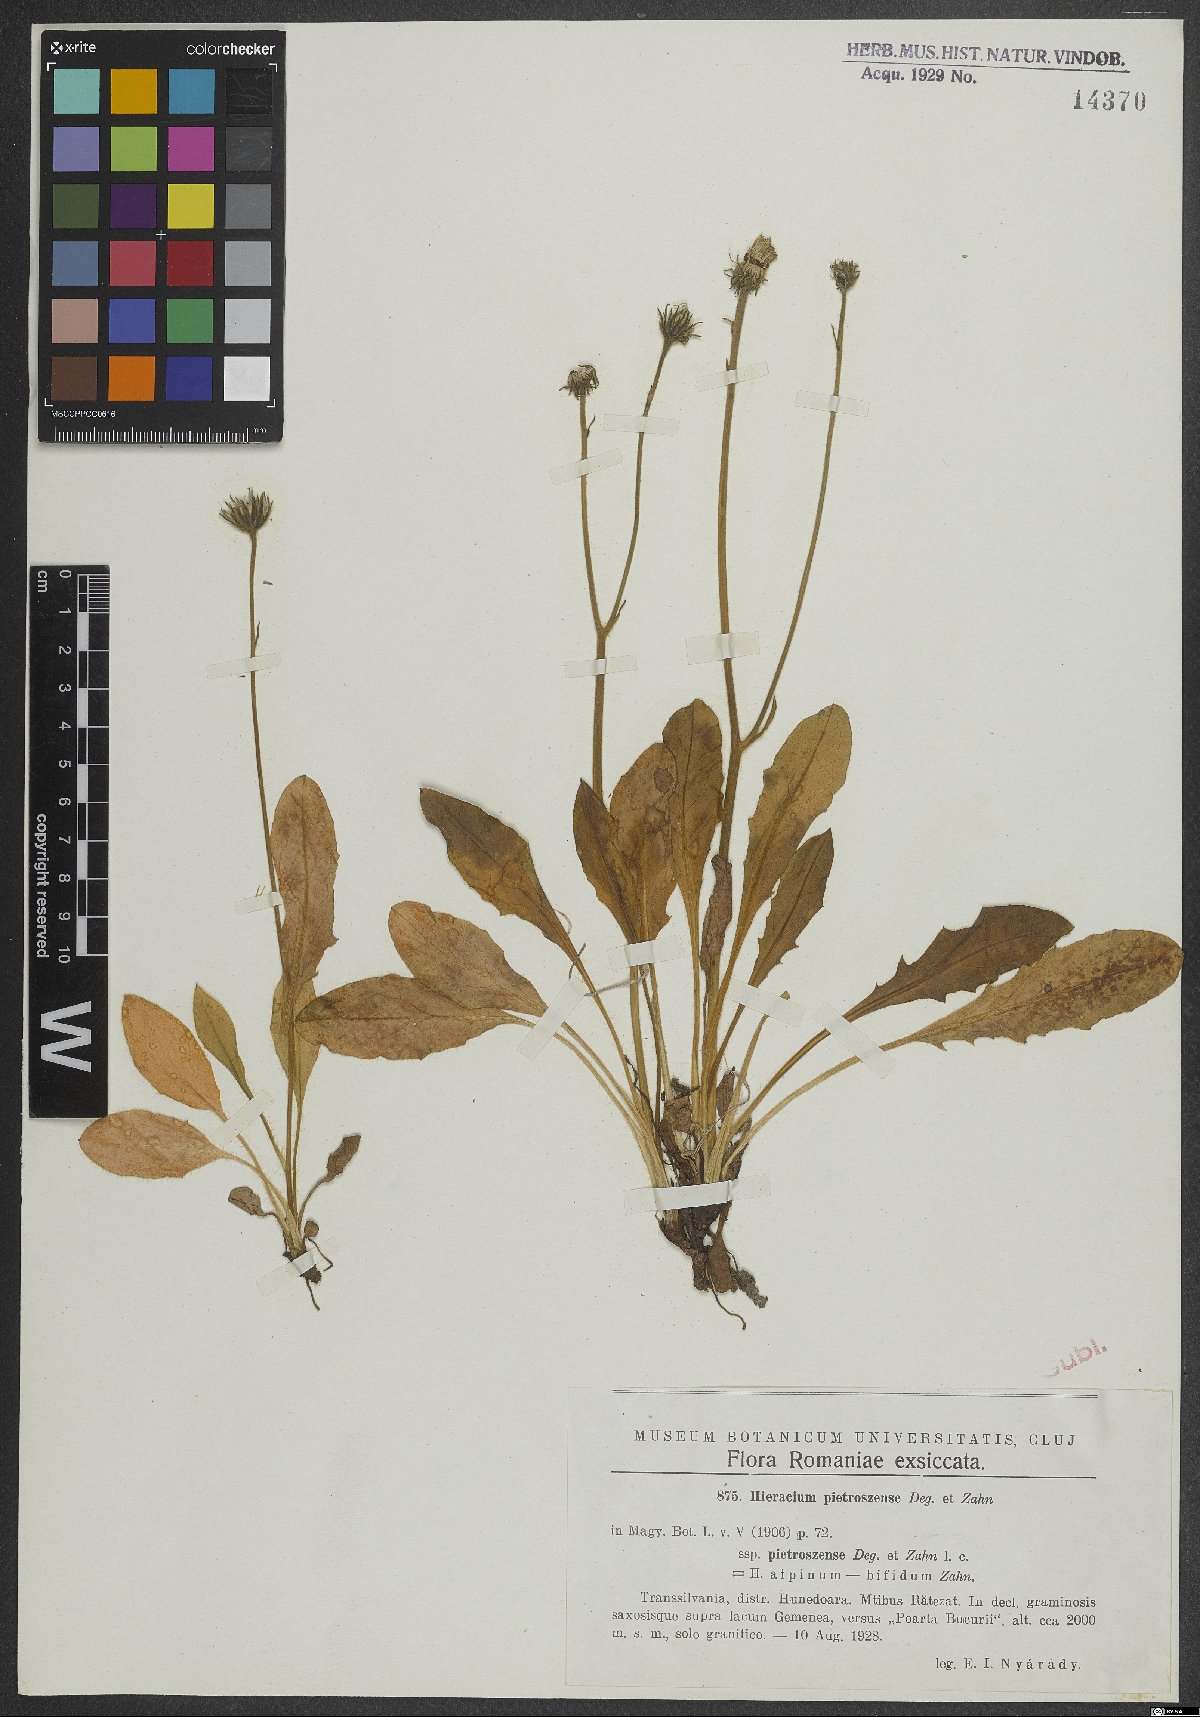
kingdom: Plantae
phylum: Tracheophyta
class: Magnoliopsida
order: Asterales
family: Asteraceae
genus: Hieracium
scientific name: Hieracium pietroszense
